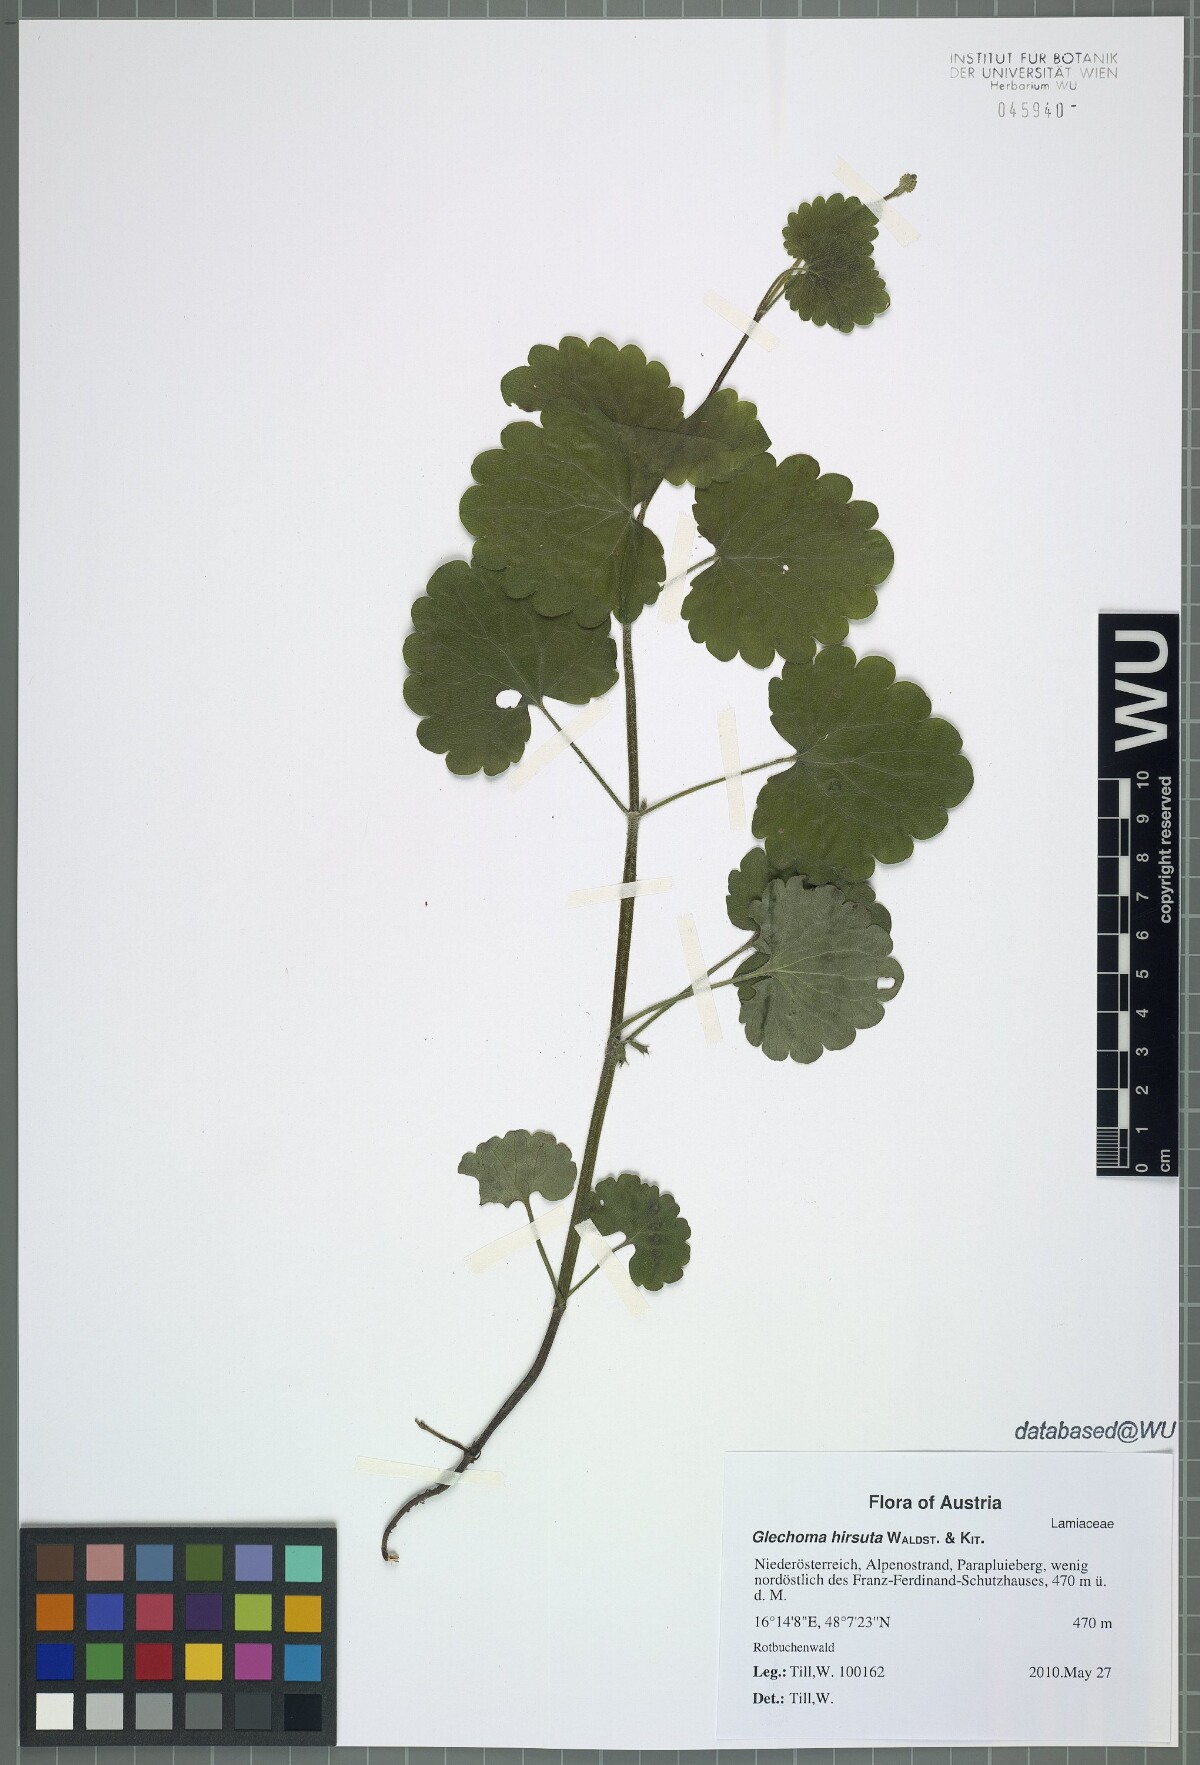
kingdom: Plantae
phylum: Tracheophyta
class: Magnoliopsida
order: Lamiales
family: Lamiaceae
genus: Glechoma
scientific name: Glechoma hirsuta
